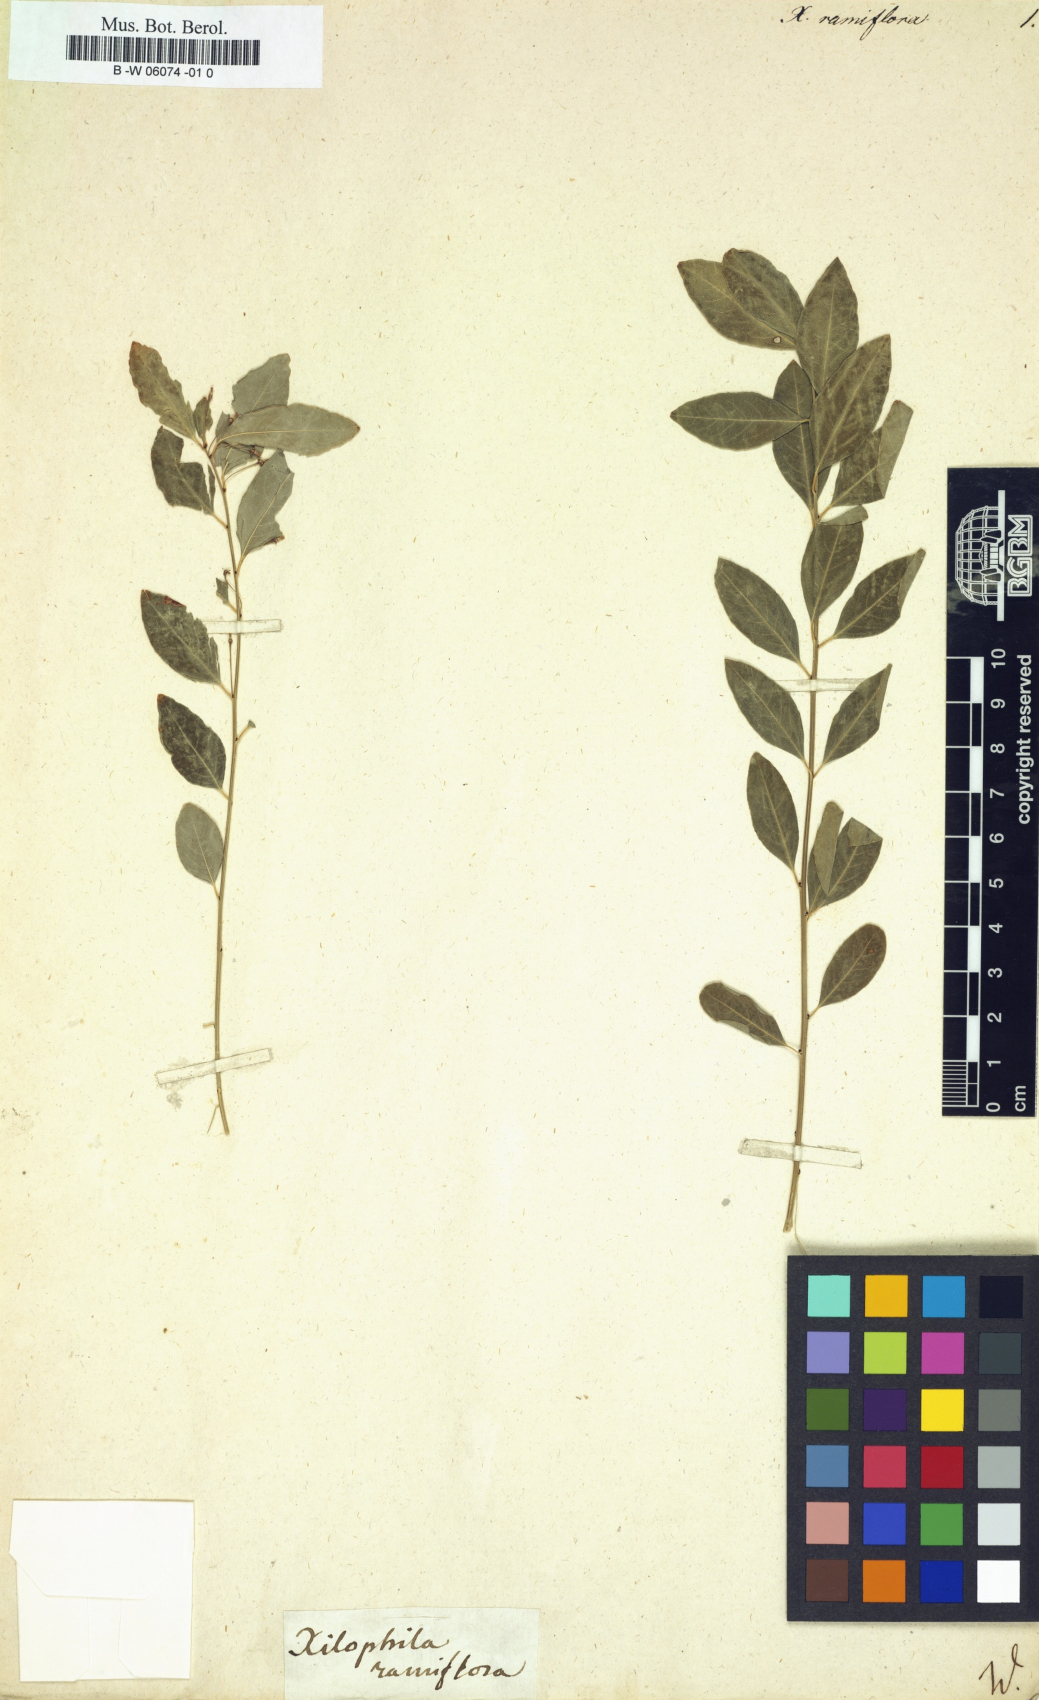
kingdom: Plantae
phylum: Tracheophyta
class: Magnoliopsida
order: Malpighiales
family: Phyllanthaceae
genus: Flueggea
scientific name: Flueggea suffruticosa
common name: Arching bushweed
